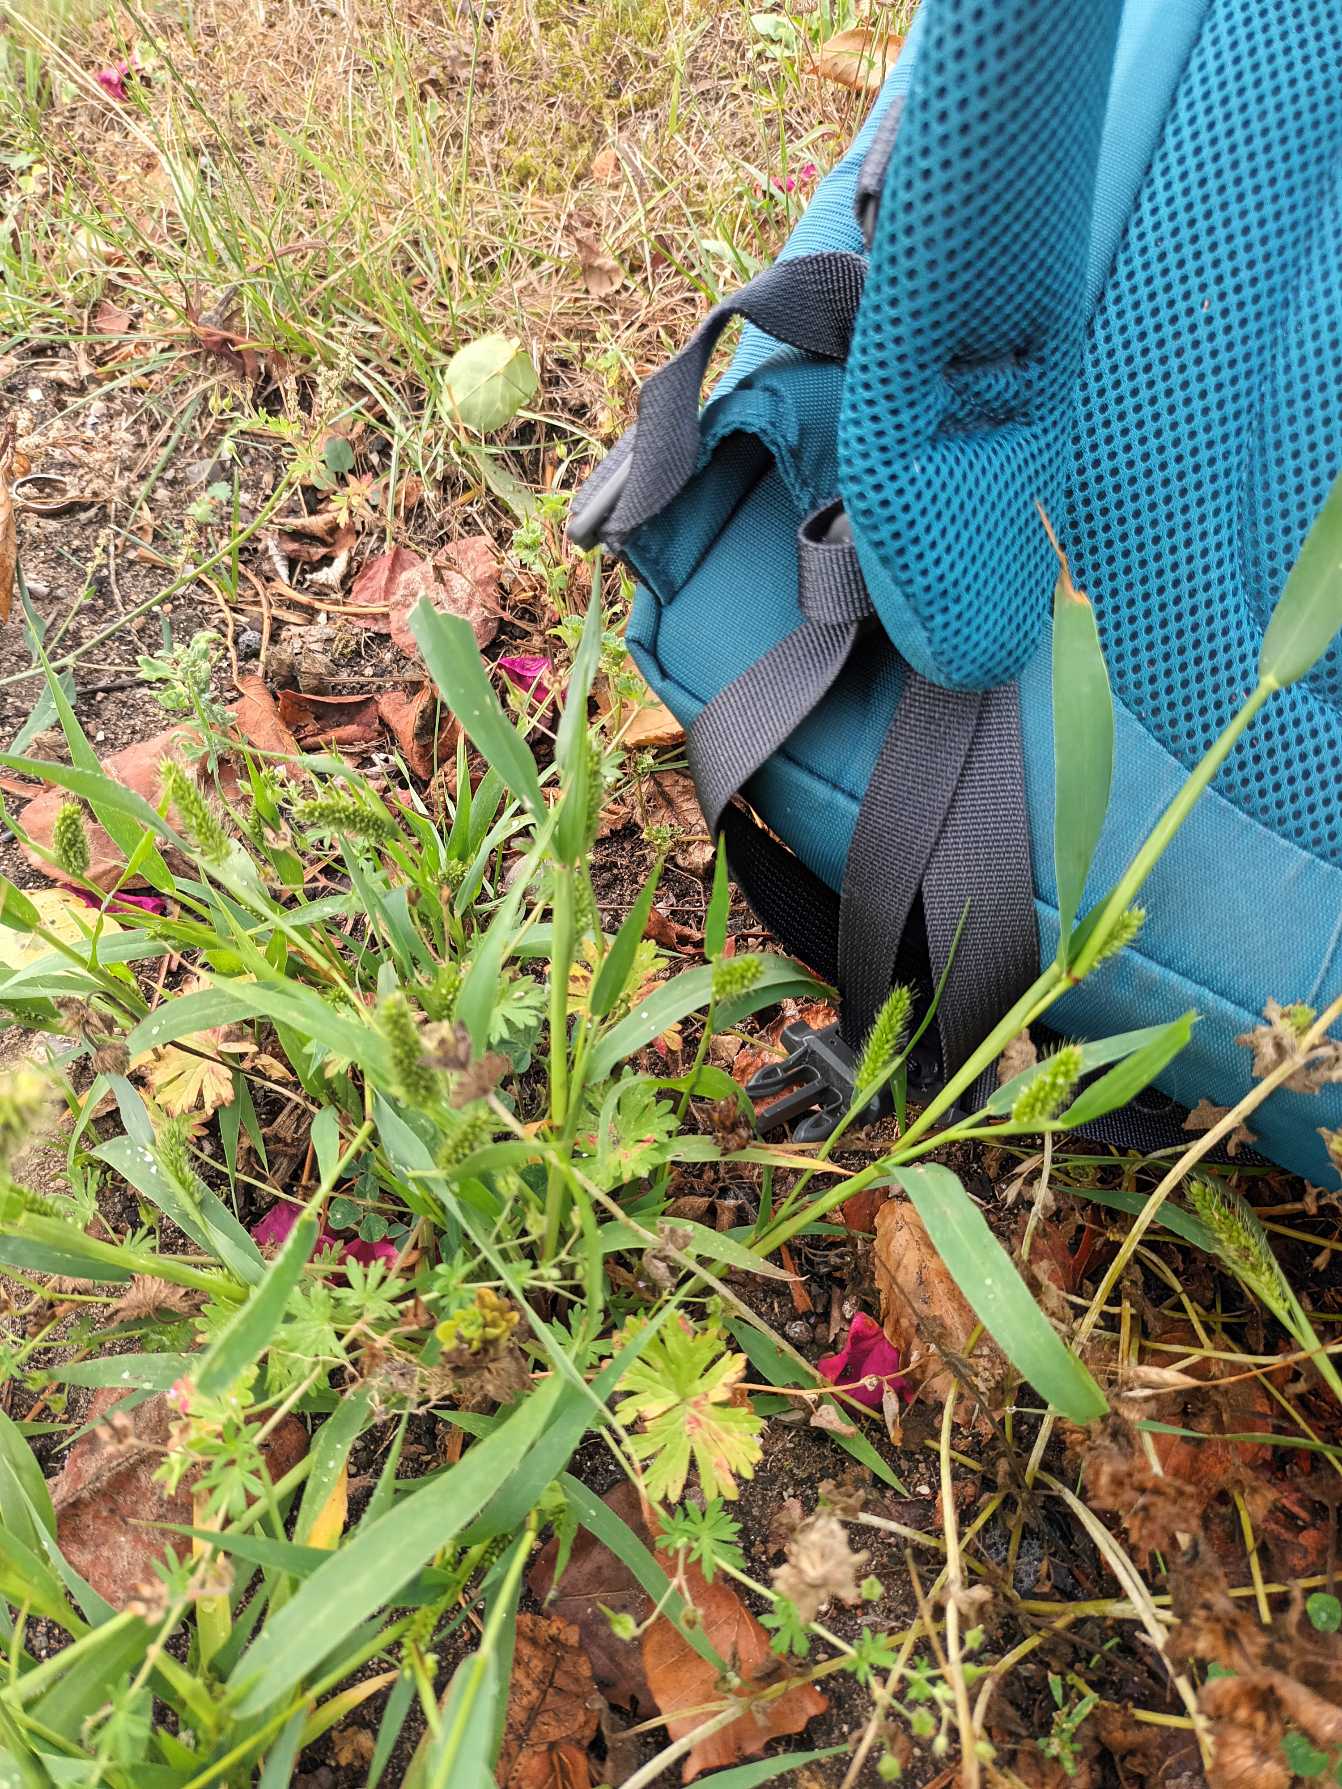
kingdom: Plantae
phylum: Tracheophyta
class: Liliopsida
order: Poales
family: Poaceae
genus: Setaria
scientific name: Setaria viridis
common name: Grøn skærmaks
